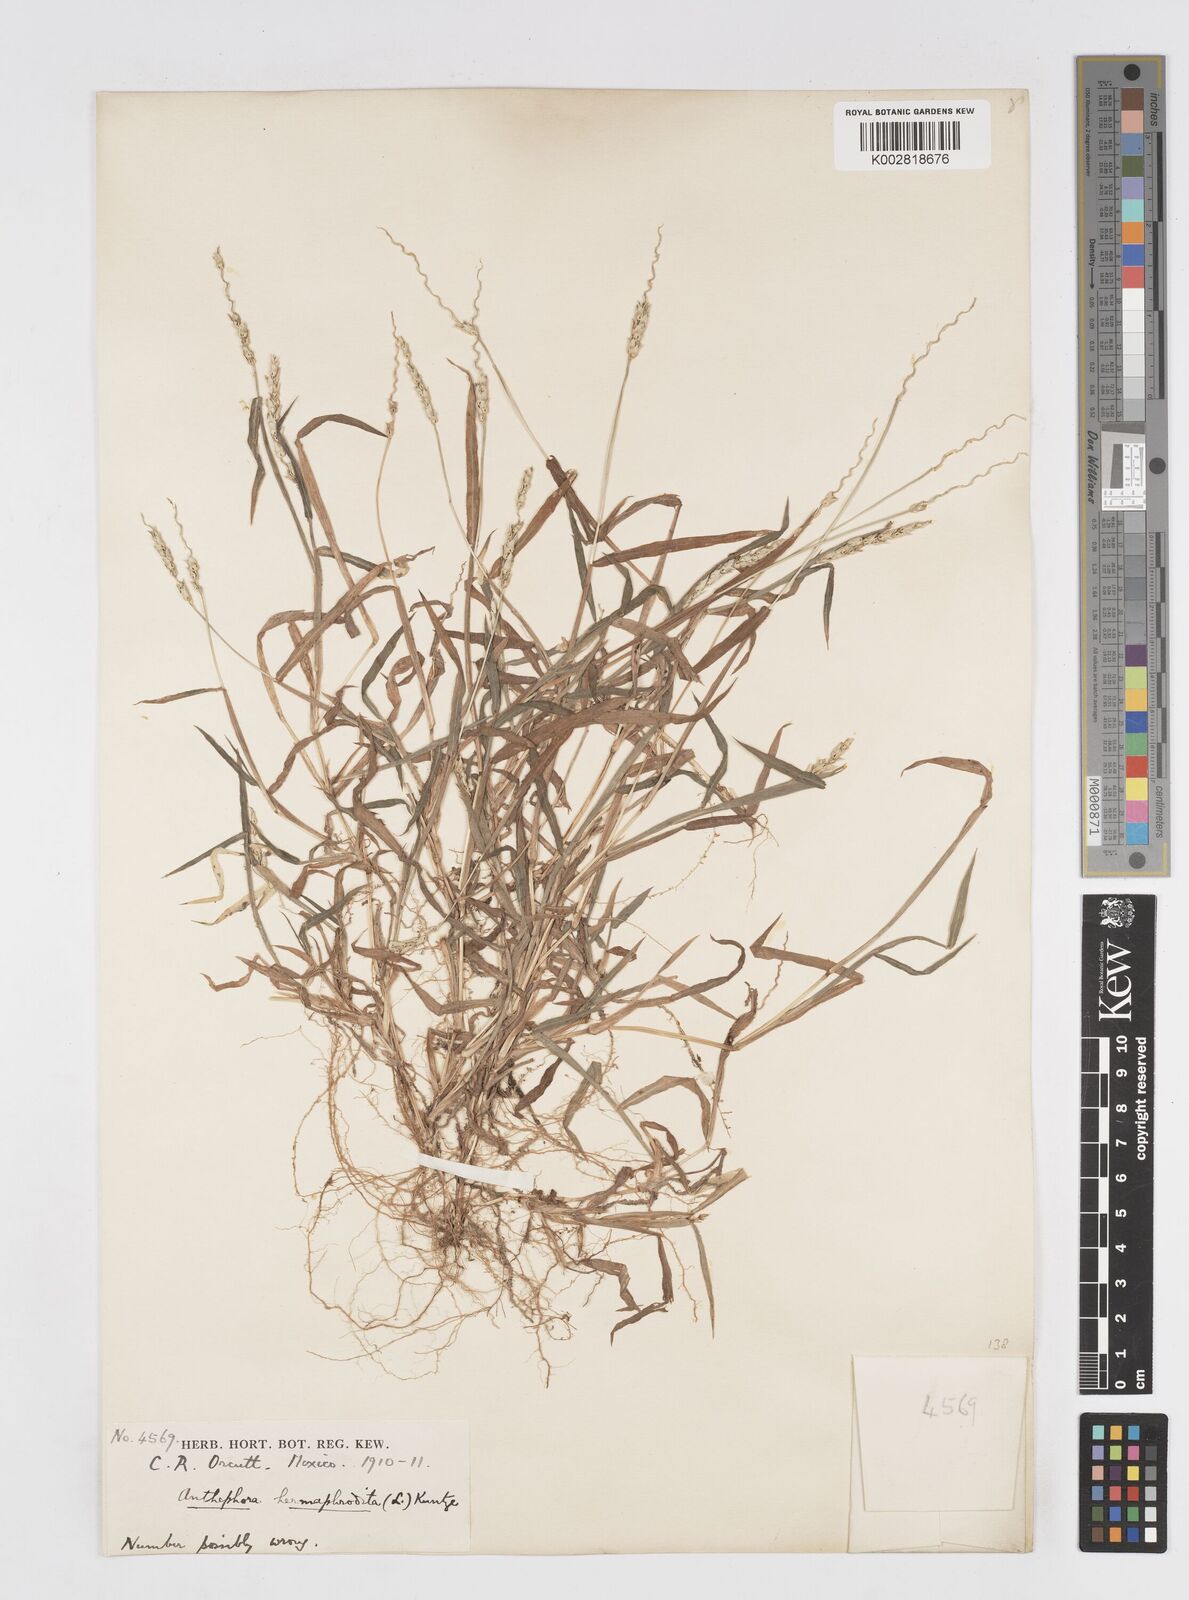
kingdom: Plantae
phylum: Tracheophyta
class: Liliopsida
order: Poales
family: Poaceae
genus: Anthephora
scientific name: Anthephora hermaphrodita
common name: Oldfield grass
